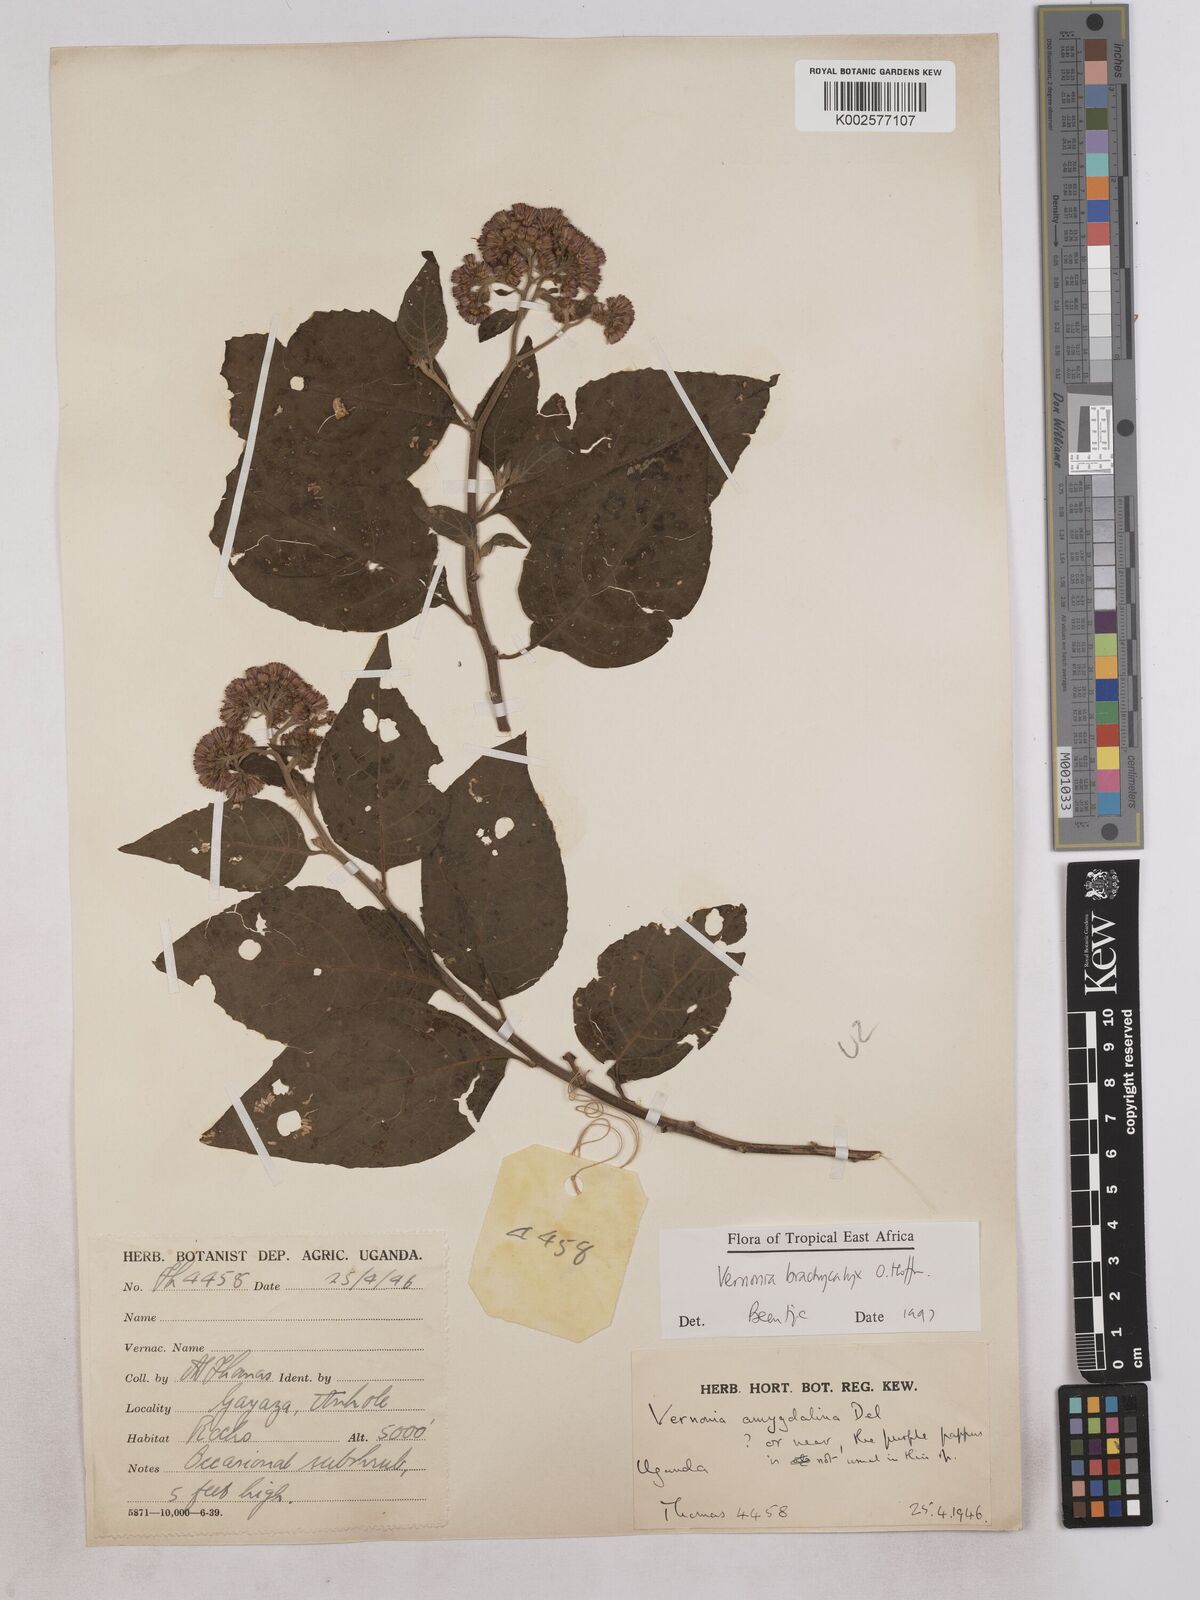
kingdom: Plantae
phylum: Tracheophyta
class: Magnoliopsida
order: Asterales
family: Asteraceae
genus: Hoffmannanthus
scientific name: Hoffmannanthus abbotianus
